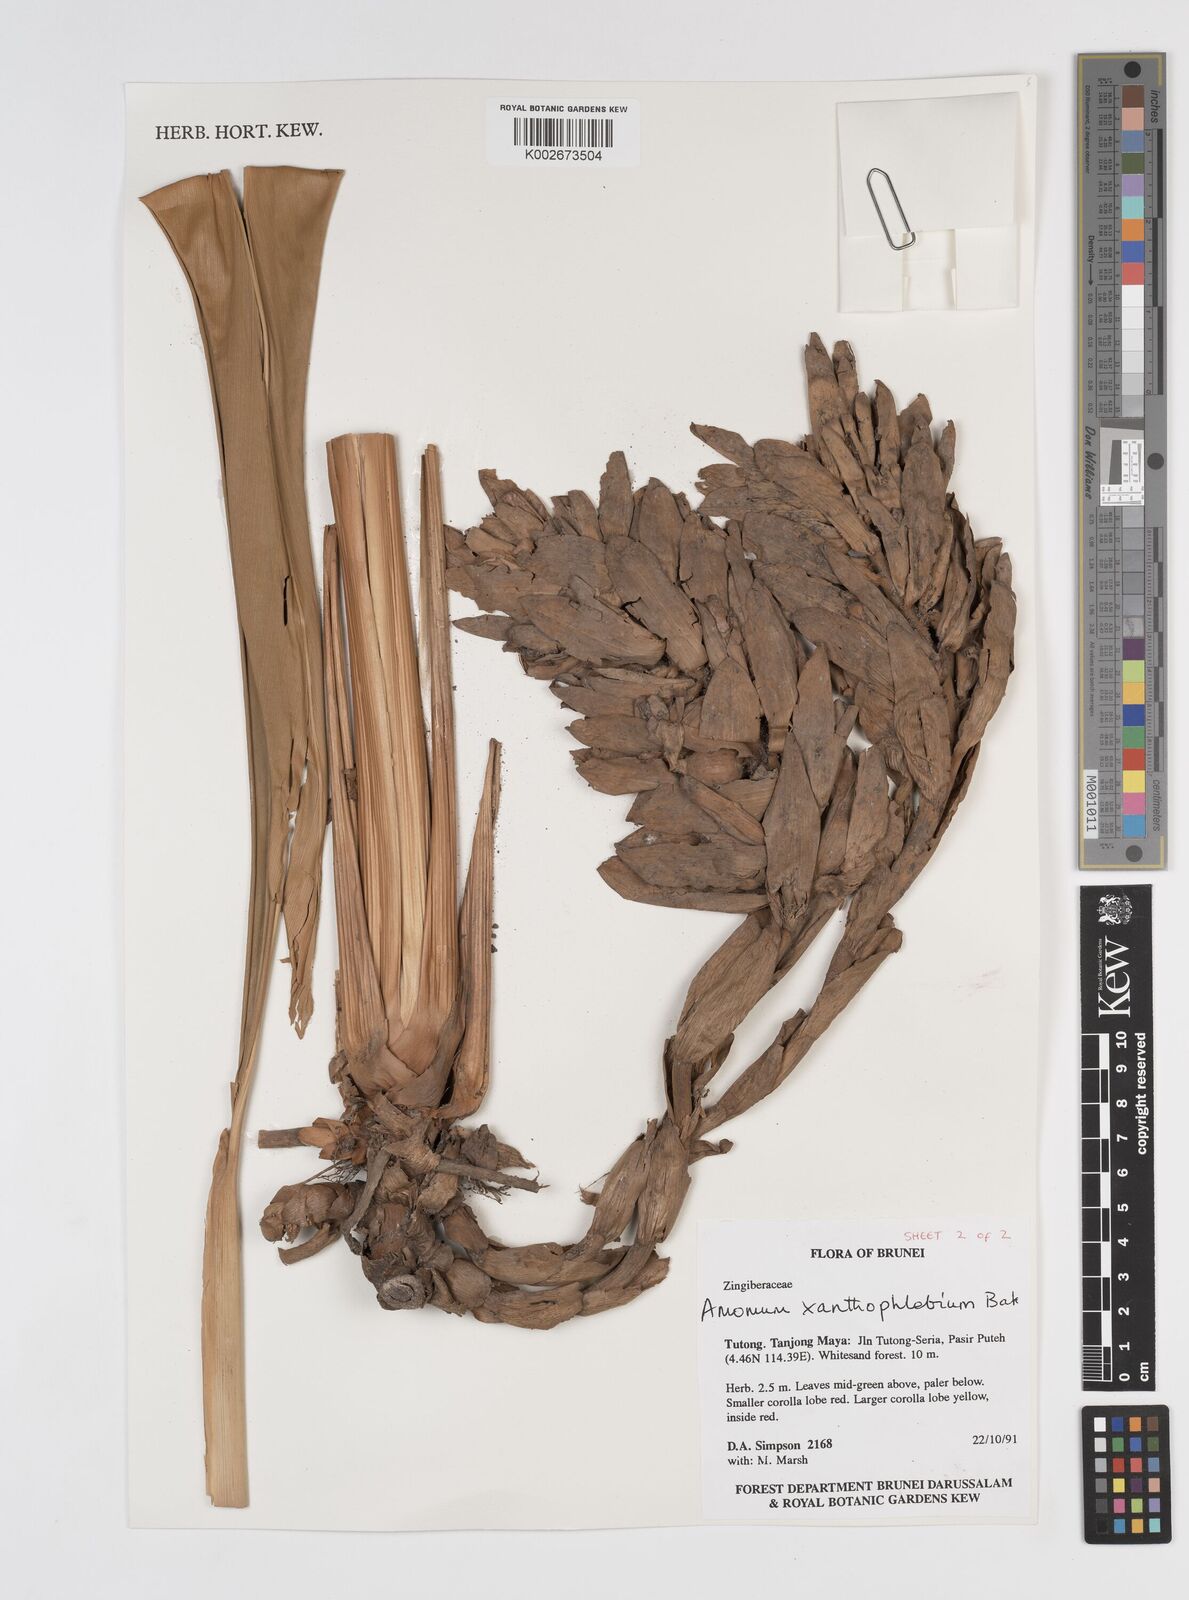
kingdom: Plantae
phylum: Tracheophyta
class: Liliopsida
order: Zingiberales
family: Zingiberaceae
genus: Conamomum
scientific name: Conamomum xanthophlebium
